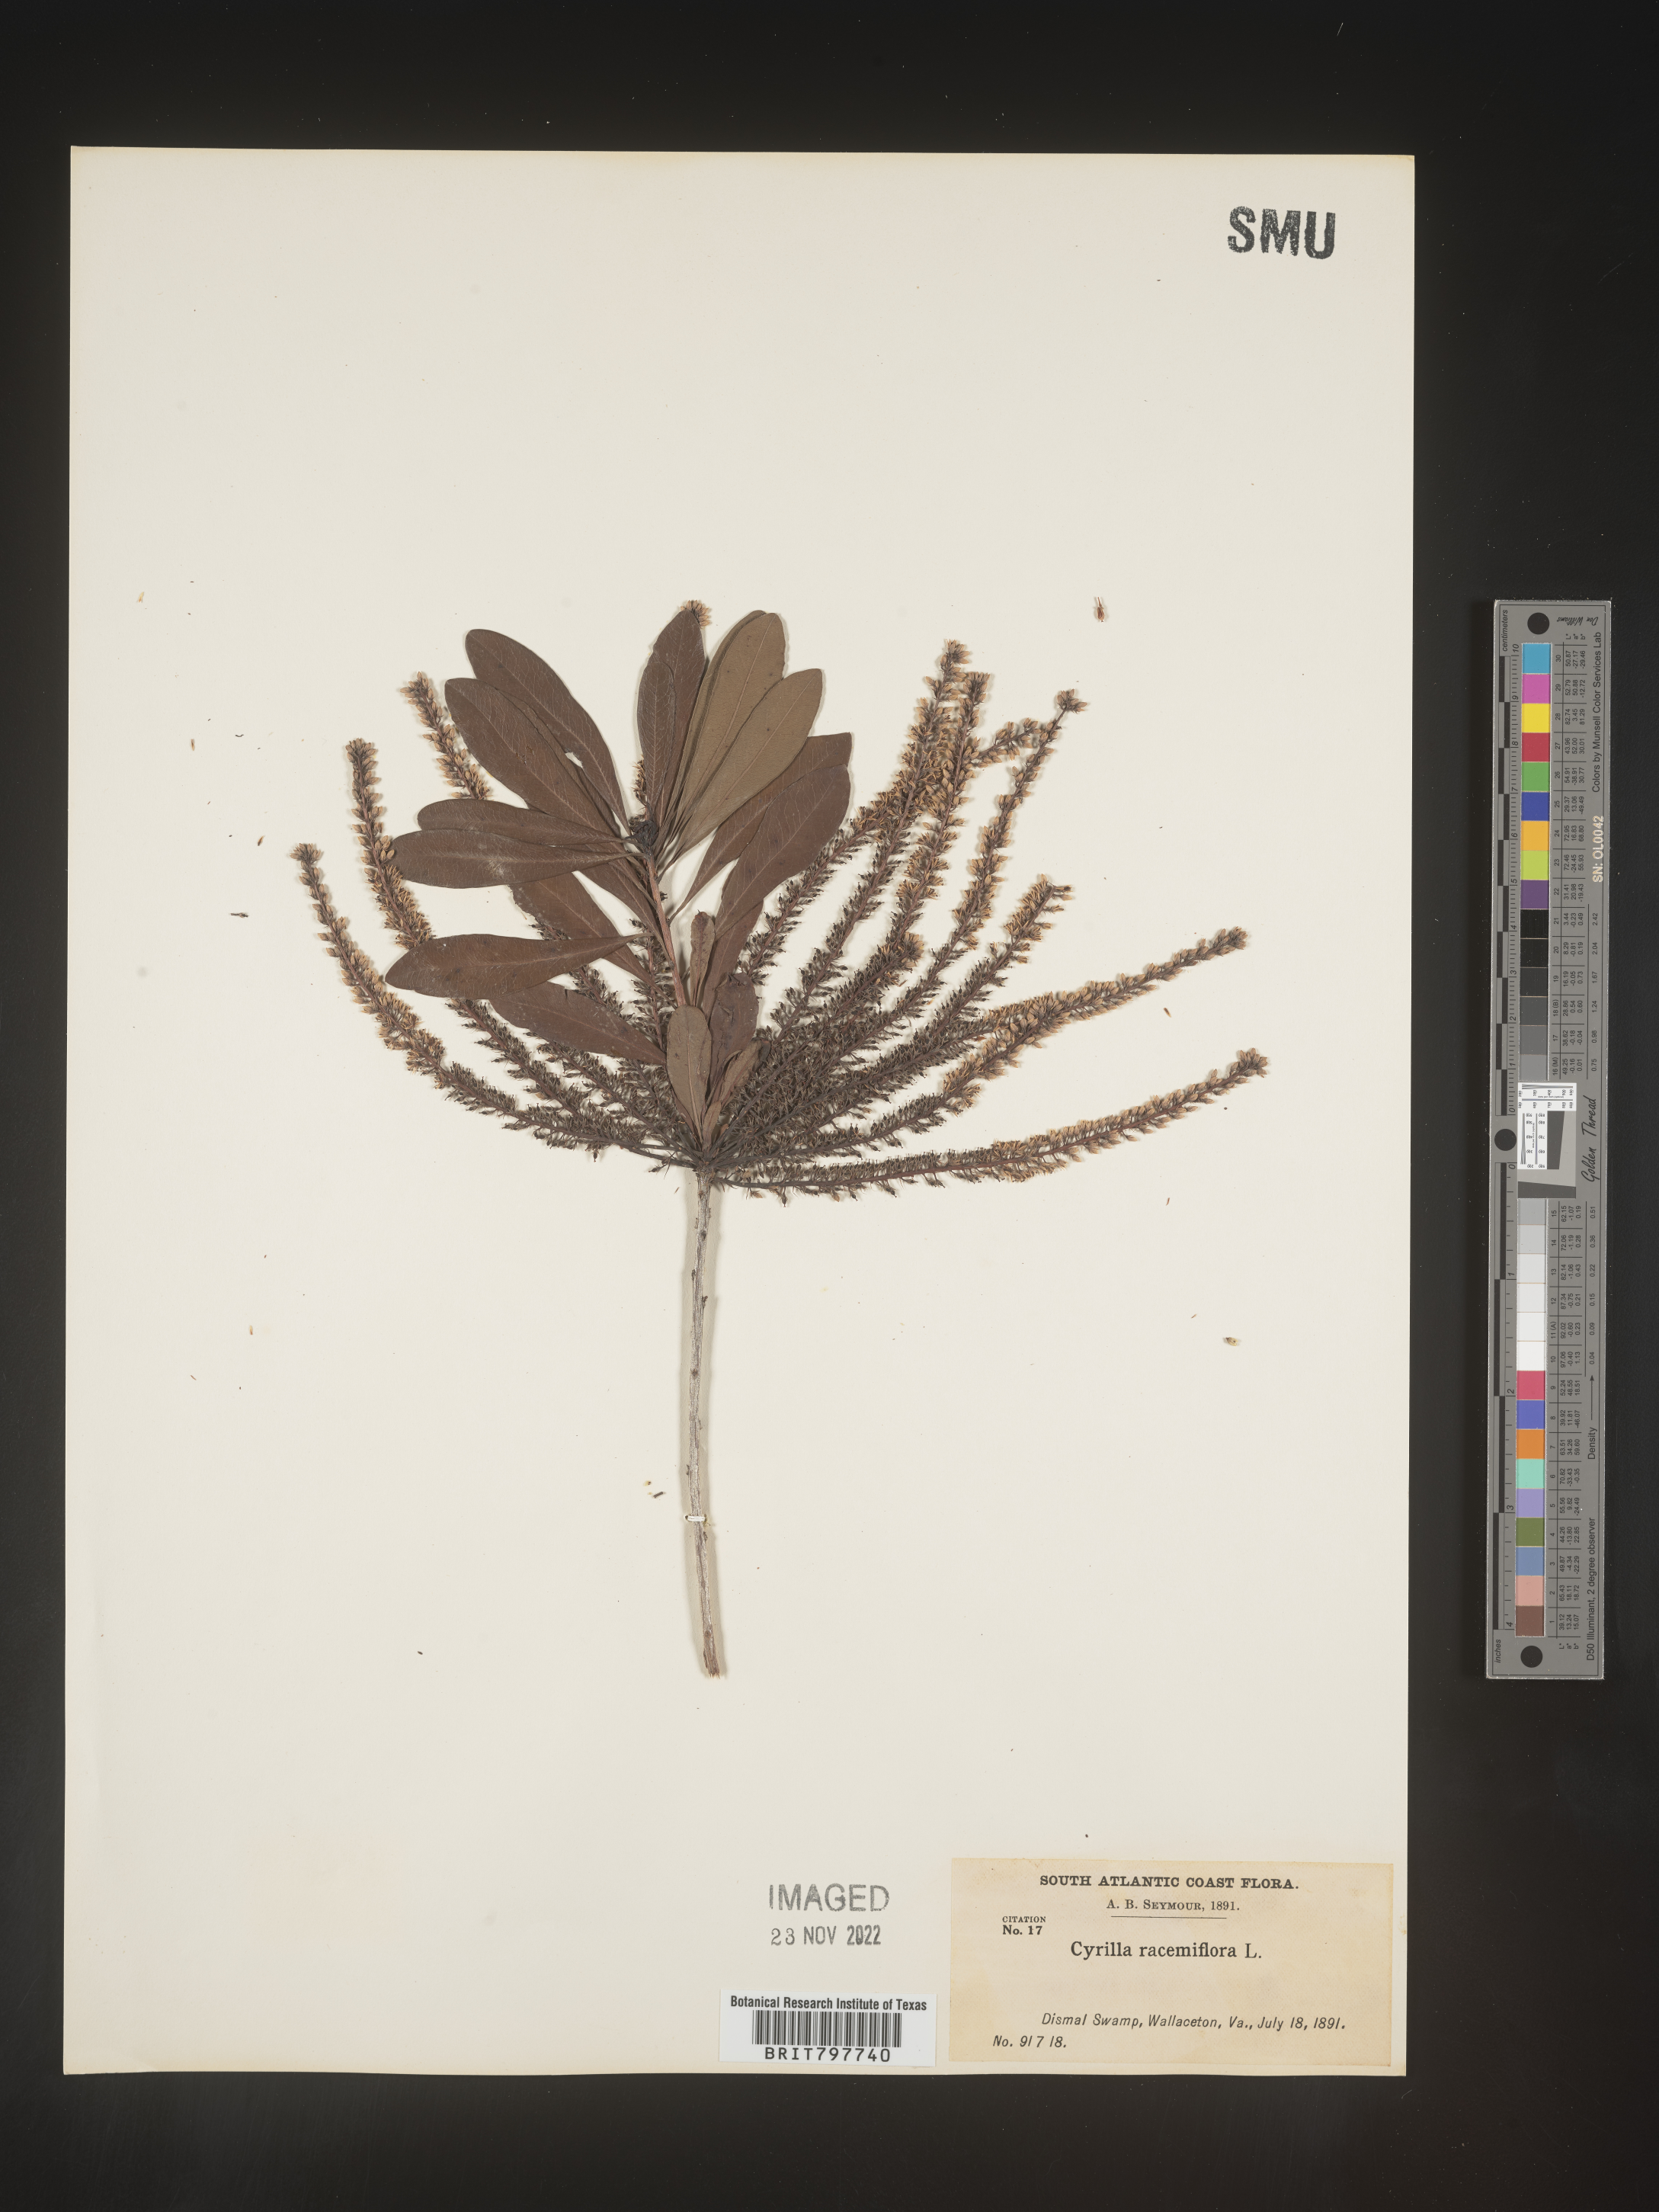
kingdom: Plantae
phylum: Tracheophyta
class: Magnoliopsida
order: Ericales
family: Cyrillaceae
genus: Cyrilla
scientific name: Cyrilla racemiflora
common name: Black titi
